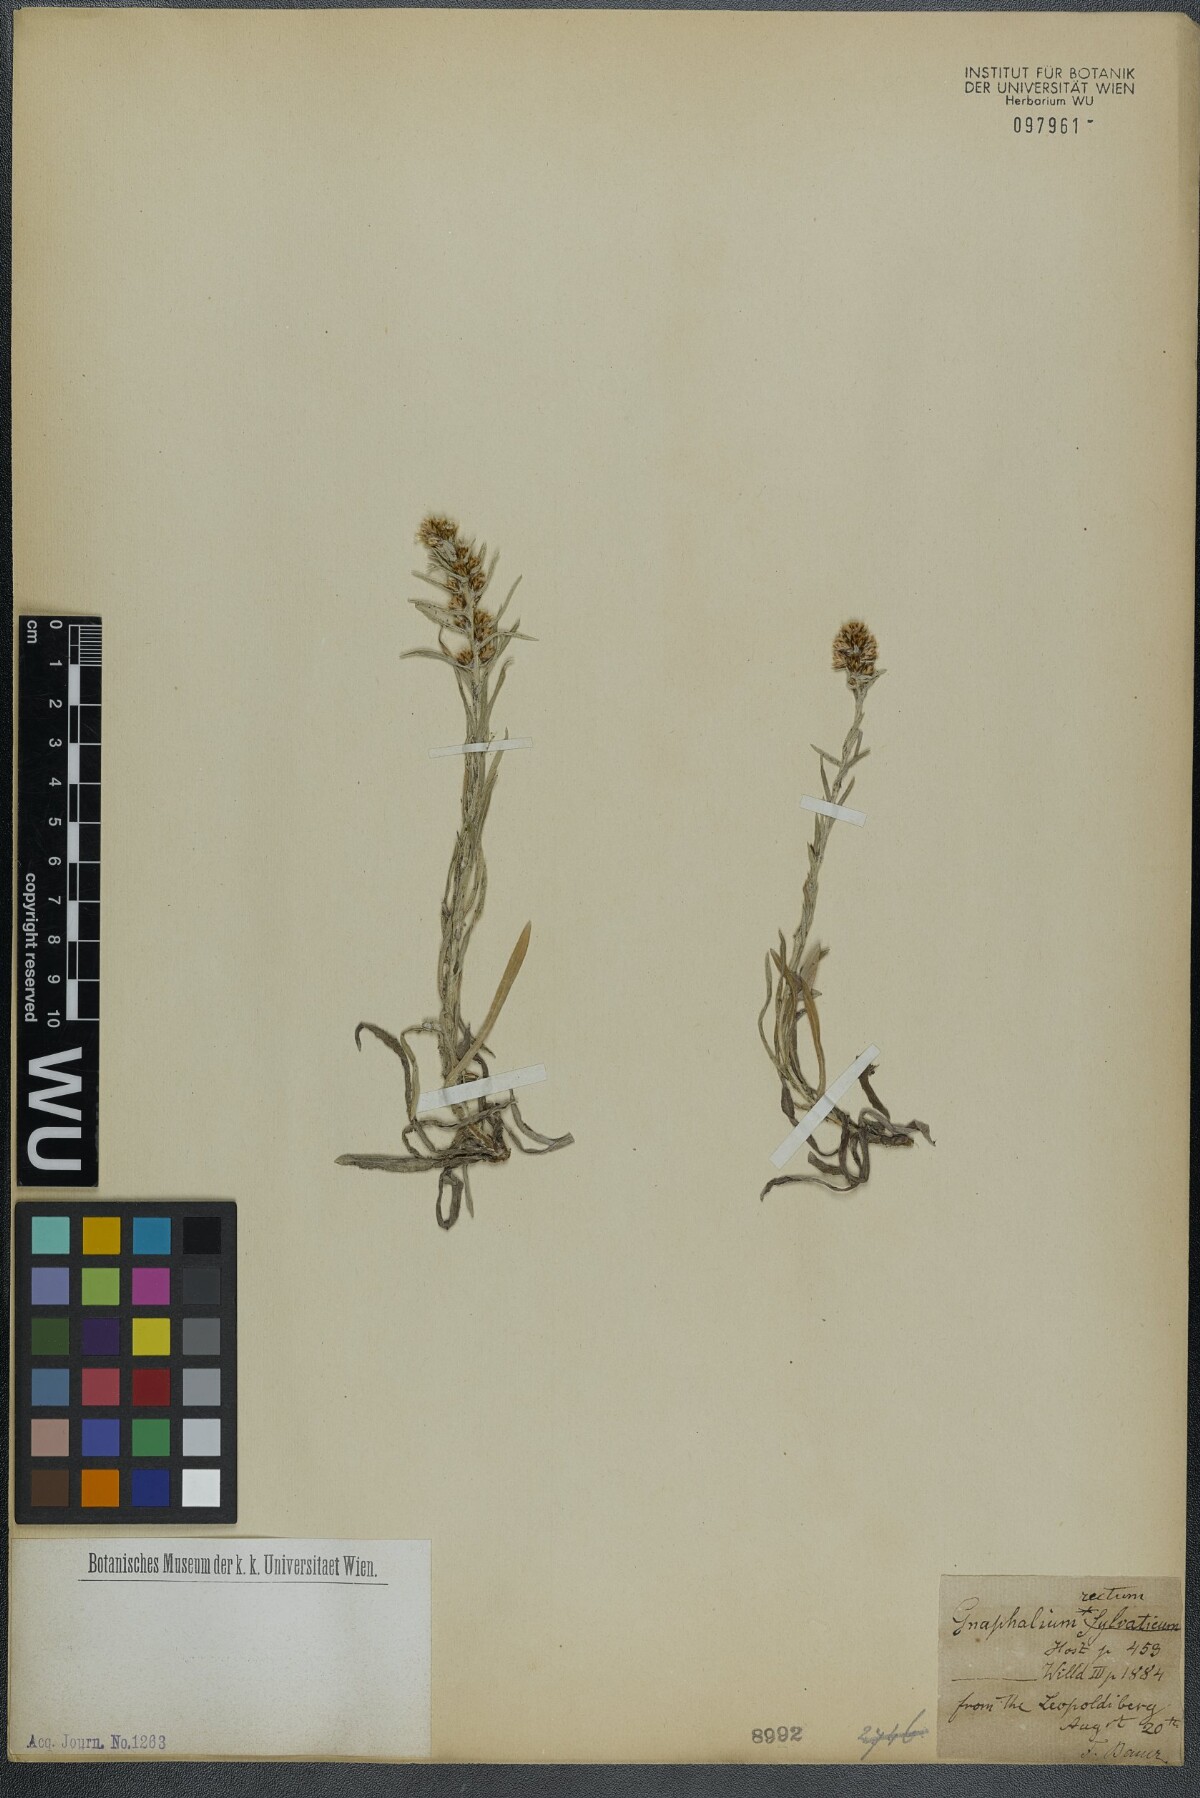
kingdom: Plantae
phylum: Tracheophyta
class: Magnoliopsida
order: Asterales
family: Asteraceae
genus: Omalotheca
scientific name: Omalotheca sylvatica
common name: Heath cudweed
